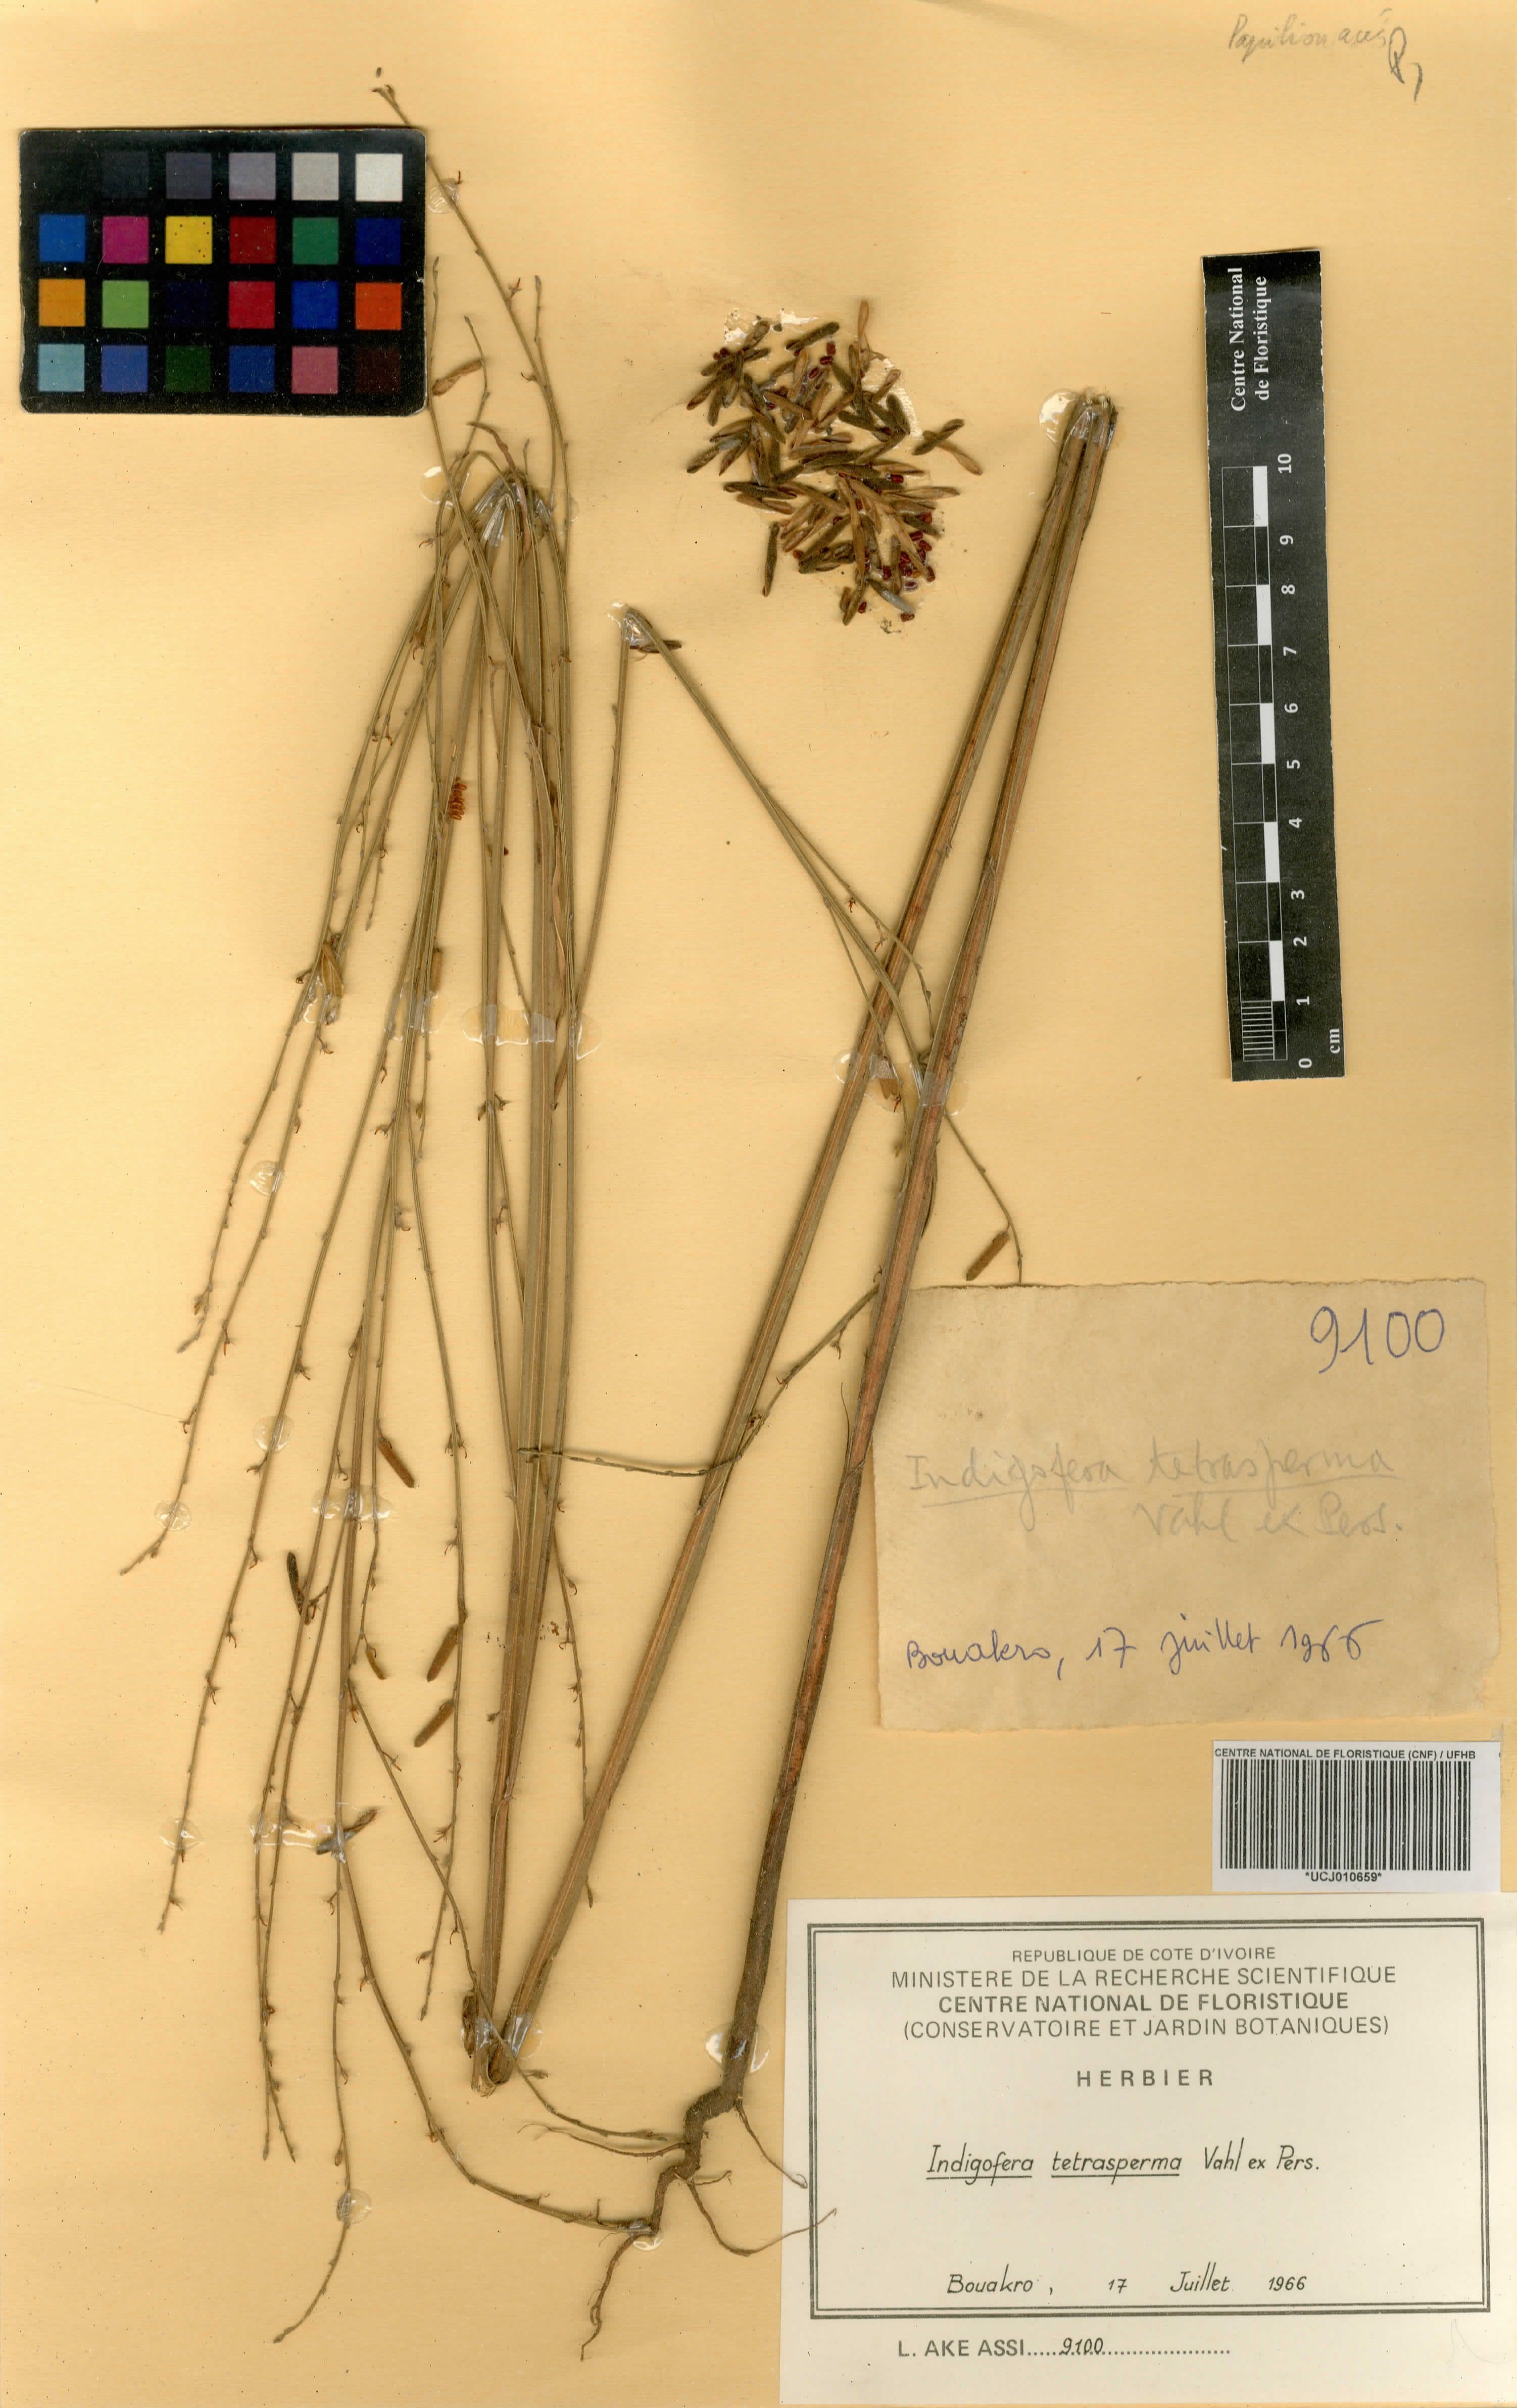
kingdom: Plantae
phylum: Tracheophyta
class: Magnoliopsida
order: Fabales
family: Fabaceae
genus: Indigofera
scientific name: Indigofera tetrasperma
